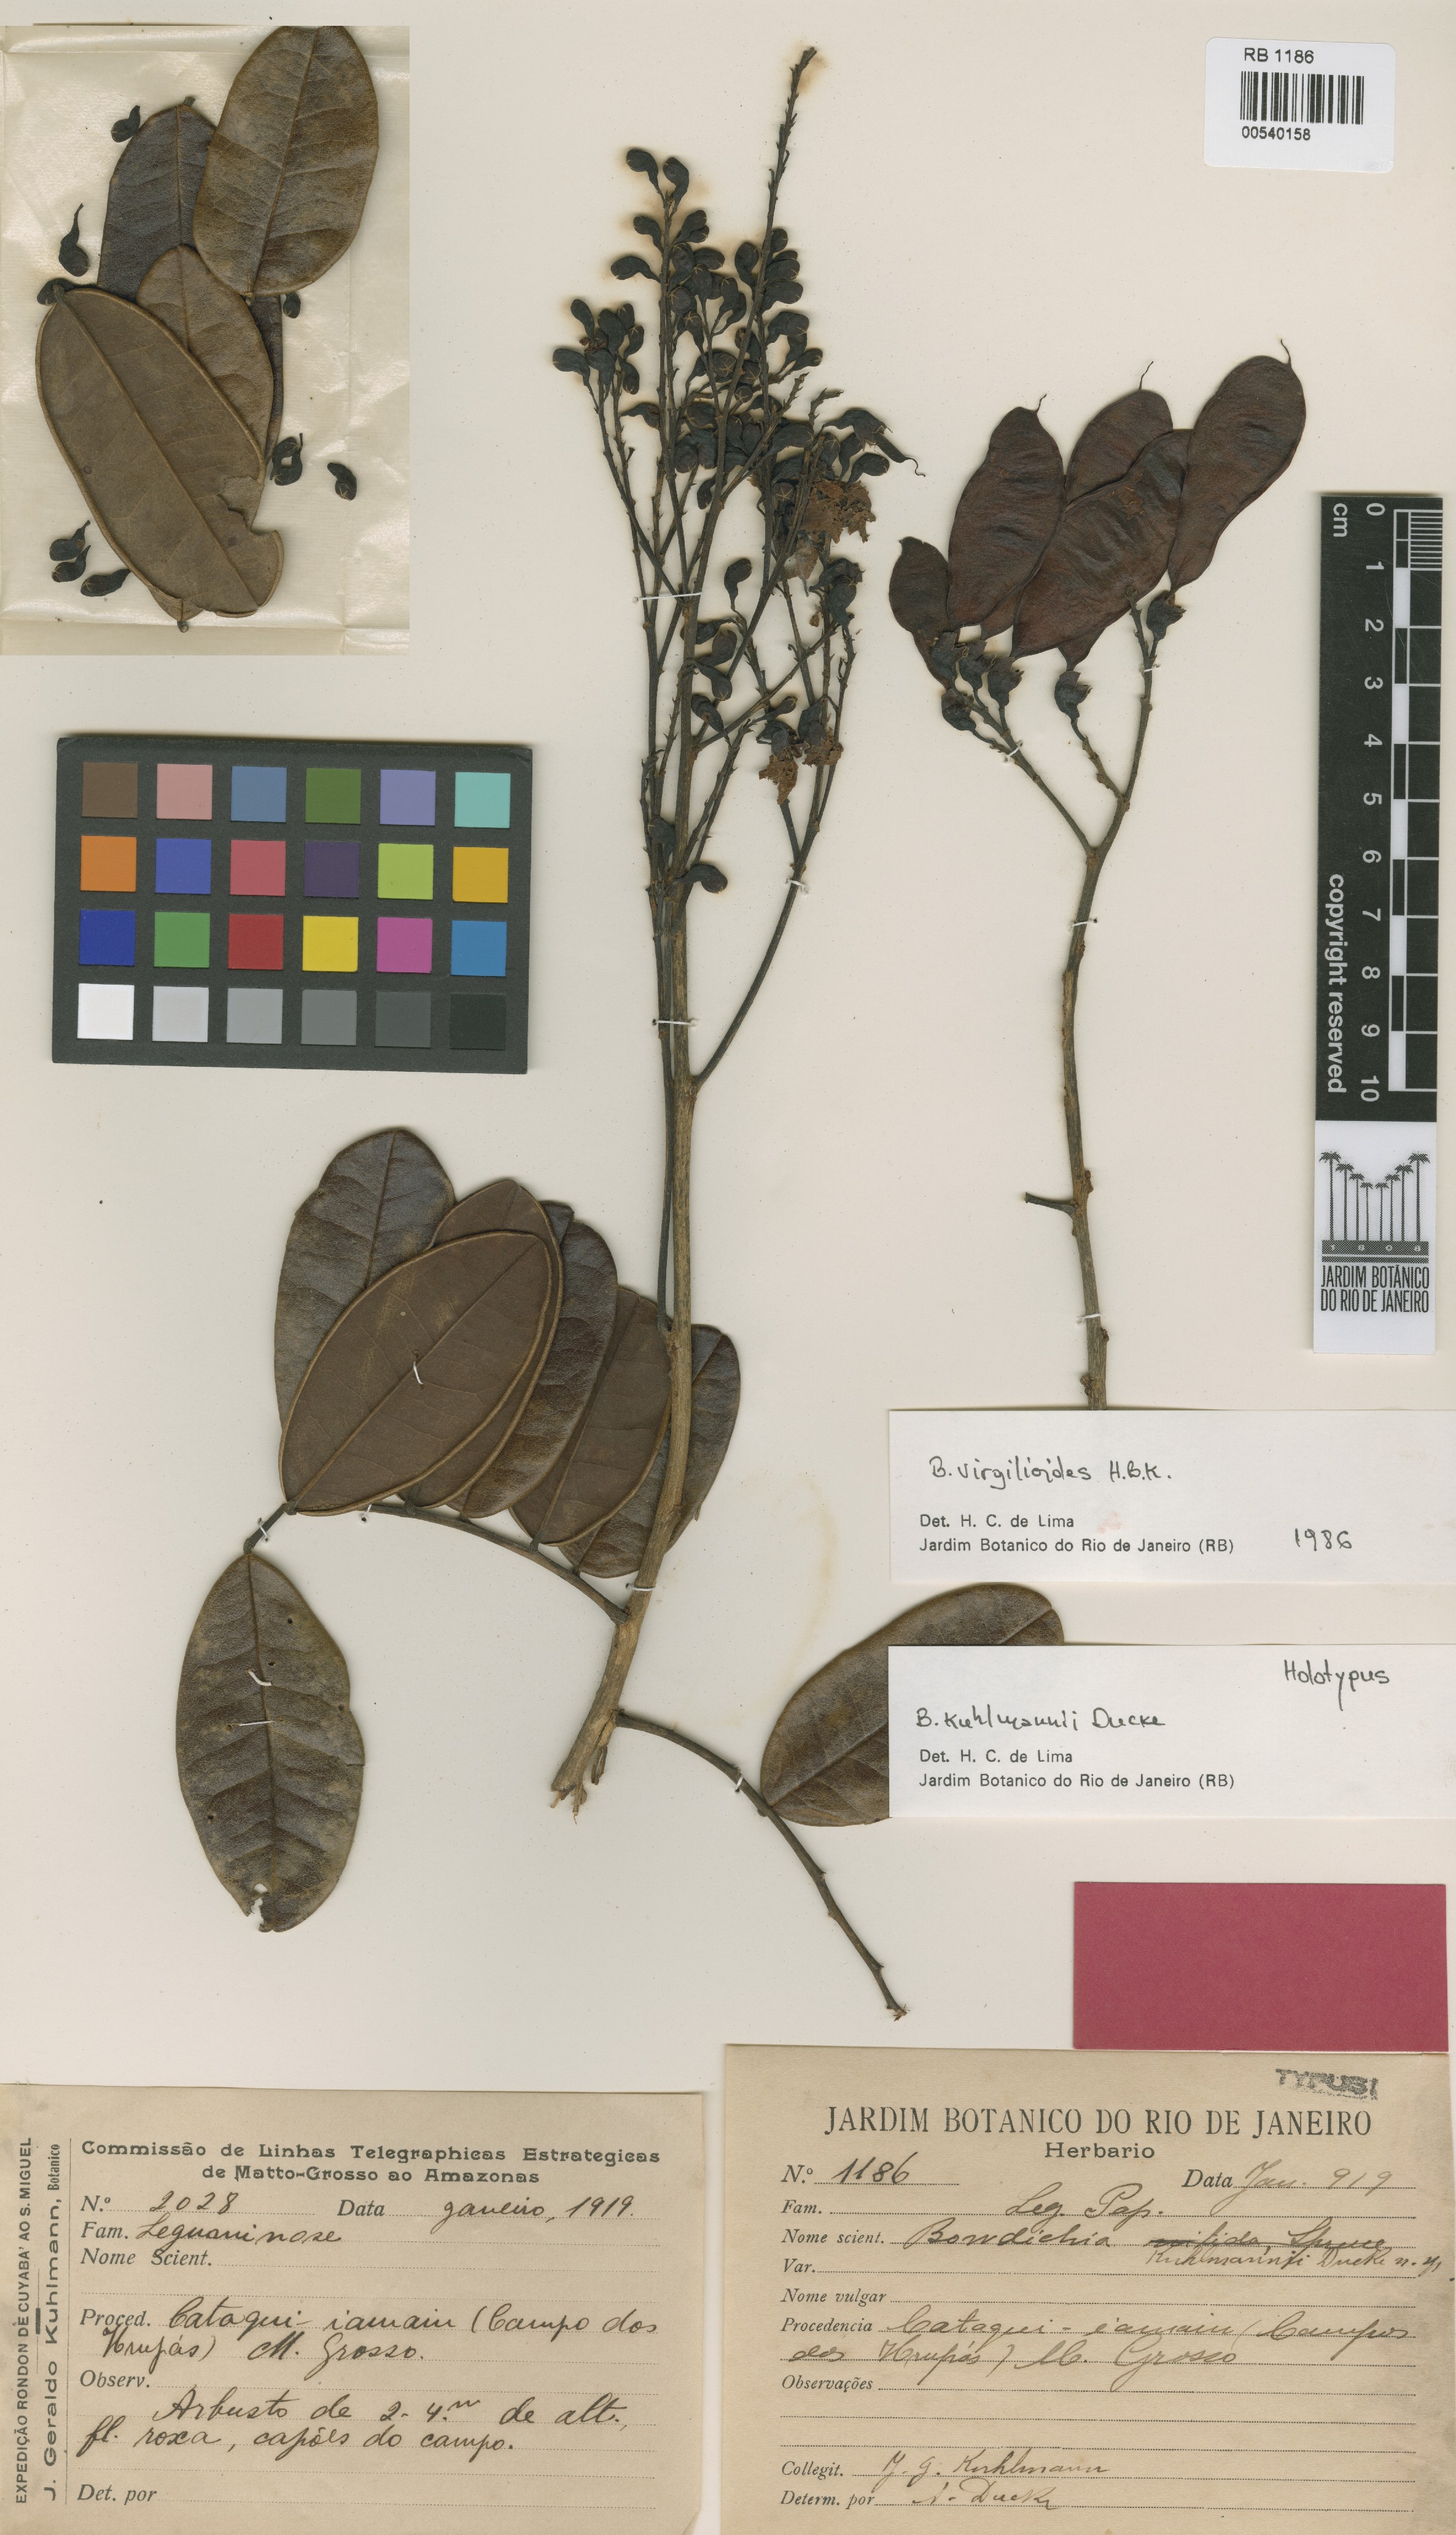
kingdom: Plantae
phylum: Tracheophyta
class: Magnoliopsida
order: Fabales
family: Fabaceae
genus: Bowdichia
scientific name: Bowdichia virgilioides
